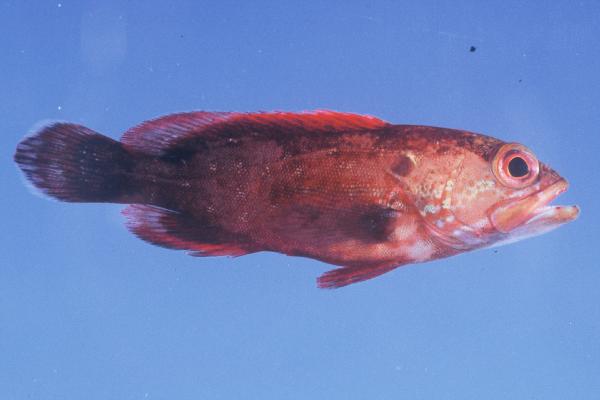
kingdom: Animalia
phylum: Chordata
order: Perciformes
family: Serranidae
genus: Cephalopholis
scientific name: Cephalopholis urodeta
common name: Darkfin hind
